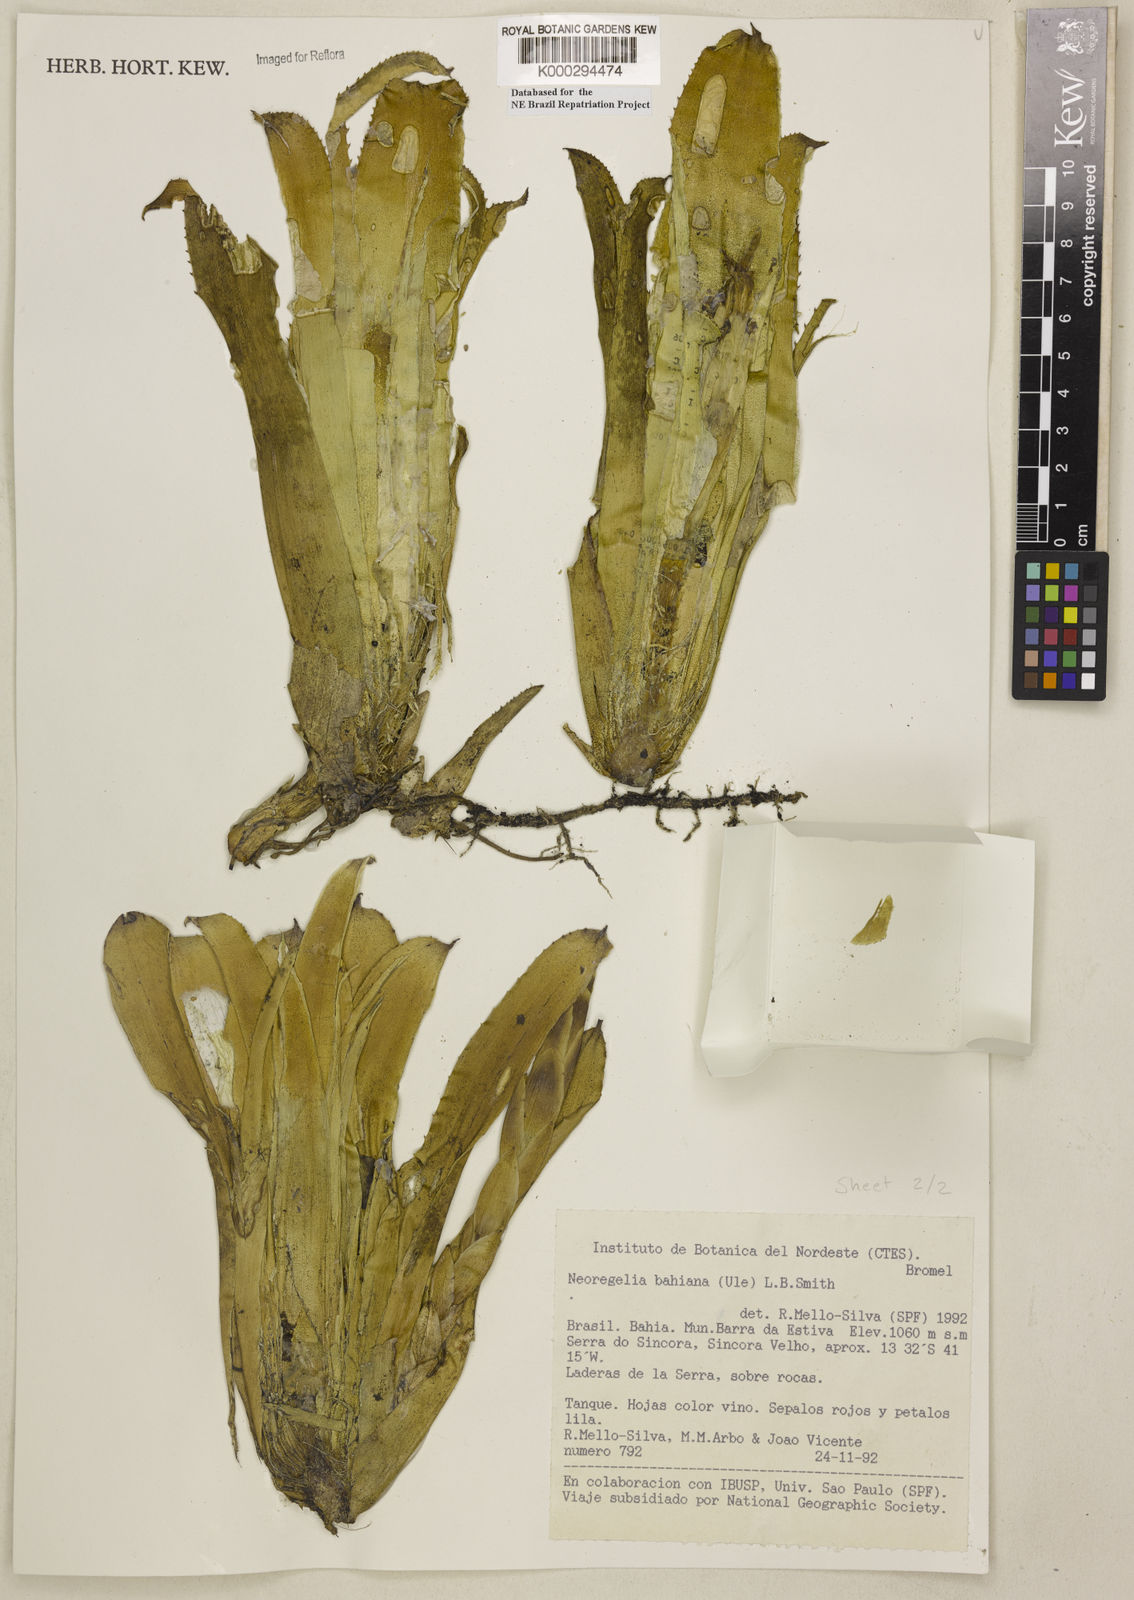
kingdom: Plantae
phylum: Tracheophyta
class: Liliopsida
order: Poales
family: Bromeliaceae
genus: Neoregelia
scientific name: Neoregelia bahiana
